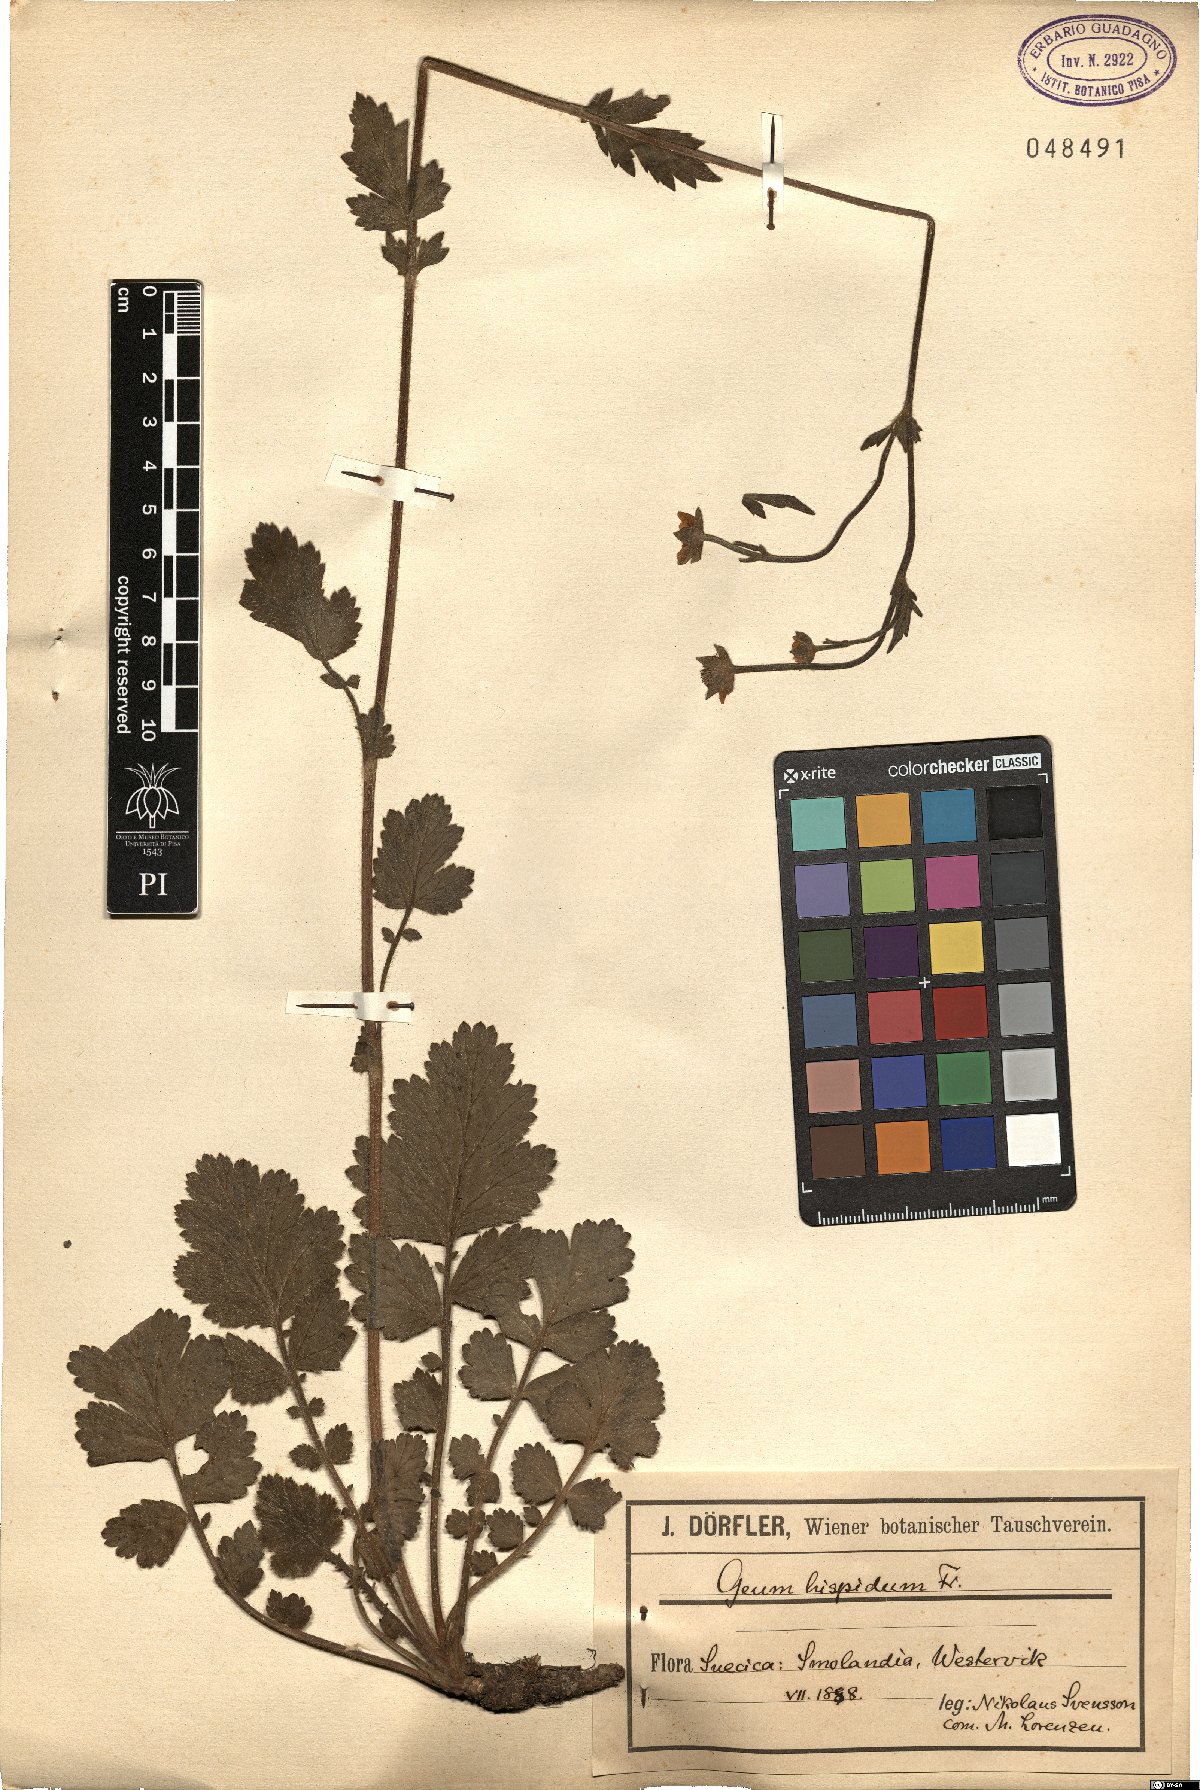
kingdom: Plantae
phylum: Tracheophyta
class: Magnoliopsida
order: Rosales
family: Rosaceae
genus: Geum
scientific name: Geum hispidum
